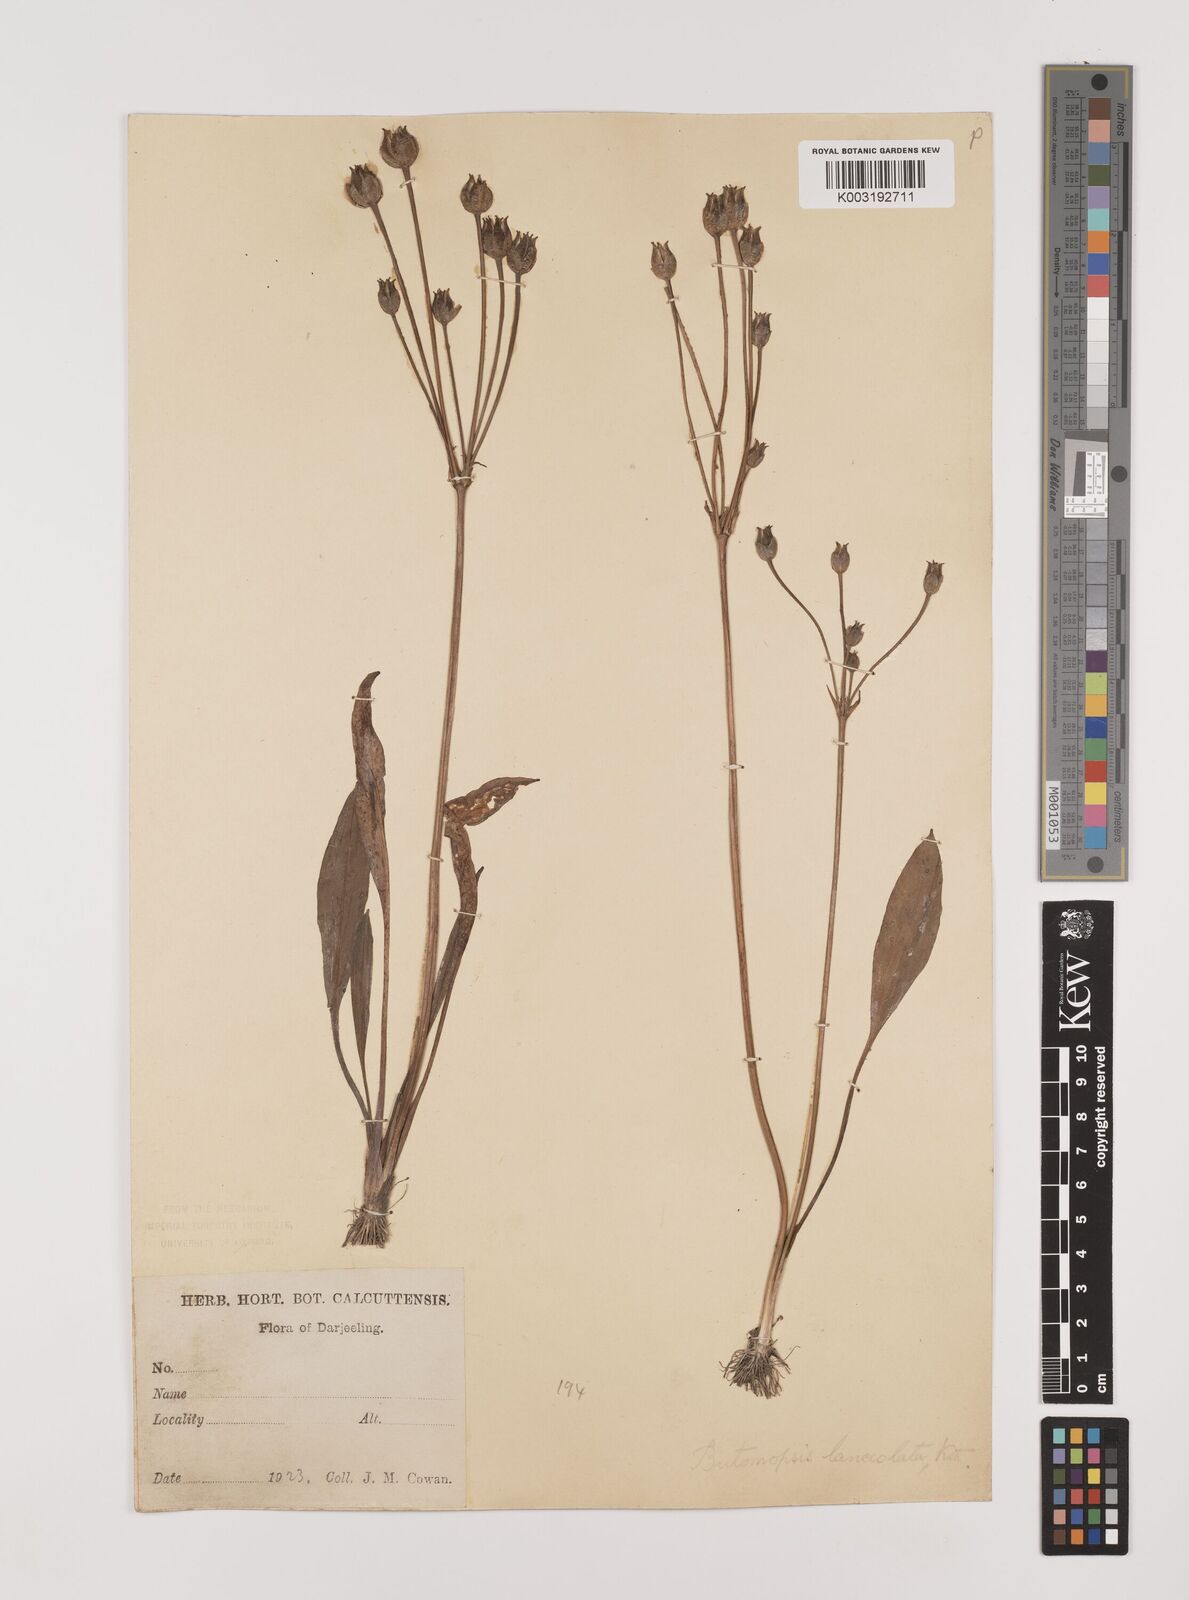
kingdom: Plantae
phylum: Tracheophyta
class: Liliopsida
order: Alismatales
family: Alismataceae
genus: Butomopsis
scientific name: Butomopsis latifolia
